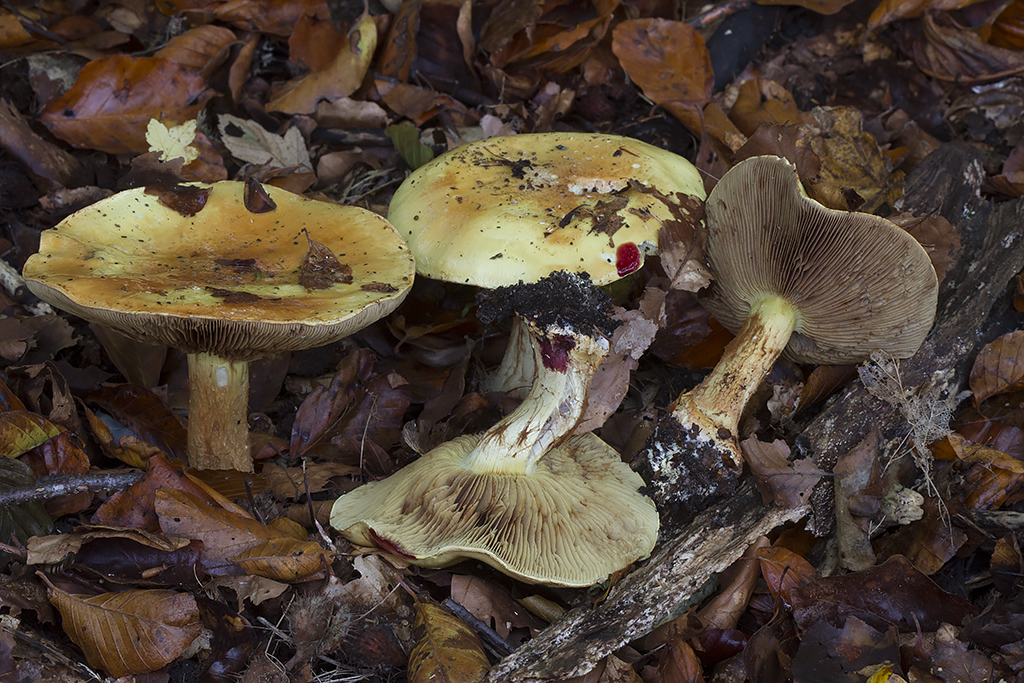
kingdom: Fungi
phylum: Basidiomycota
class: Agaricomycetes
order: Agaricales
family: Cortinariaceae
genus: Calonarius
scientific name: Calonarius elegantissimus
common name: orangegylden slørhat
